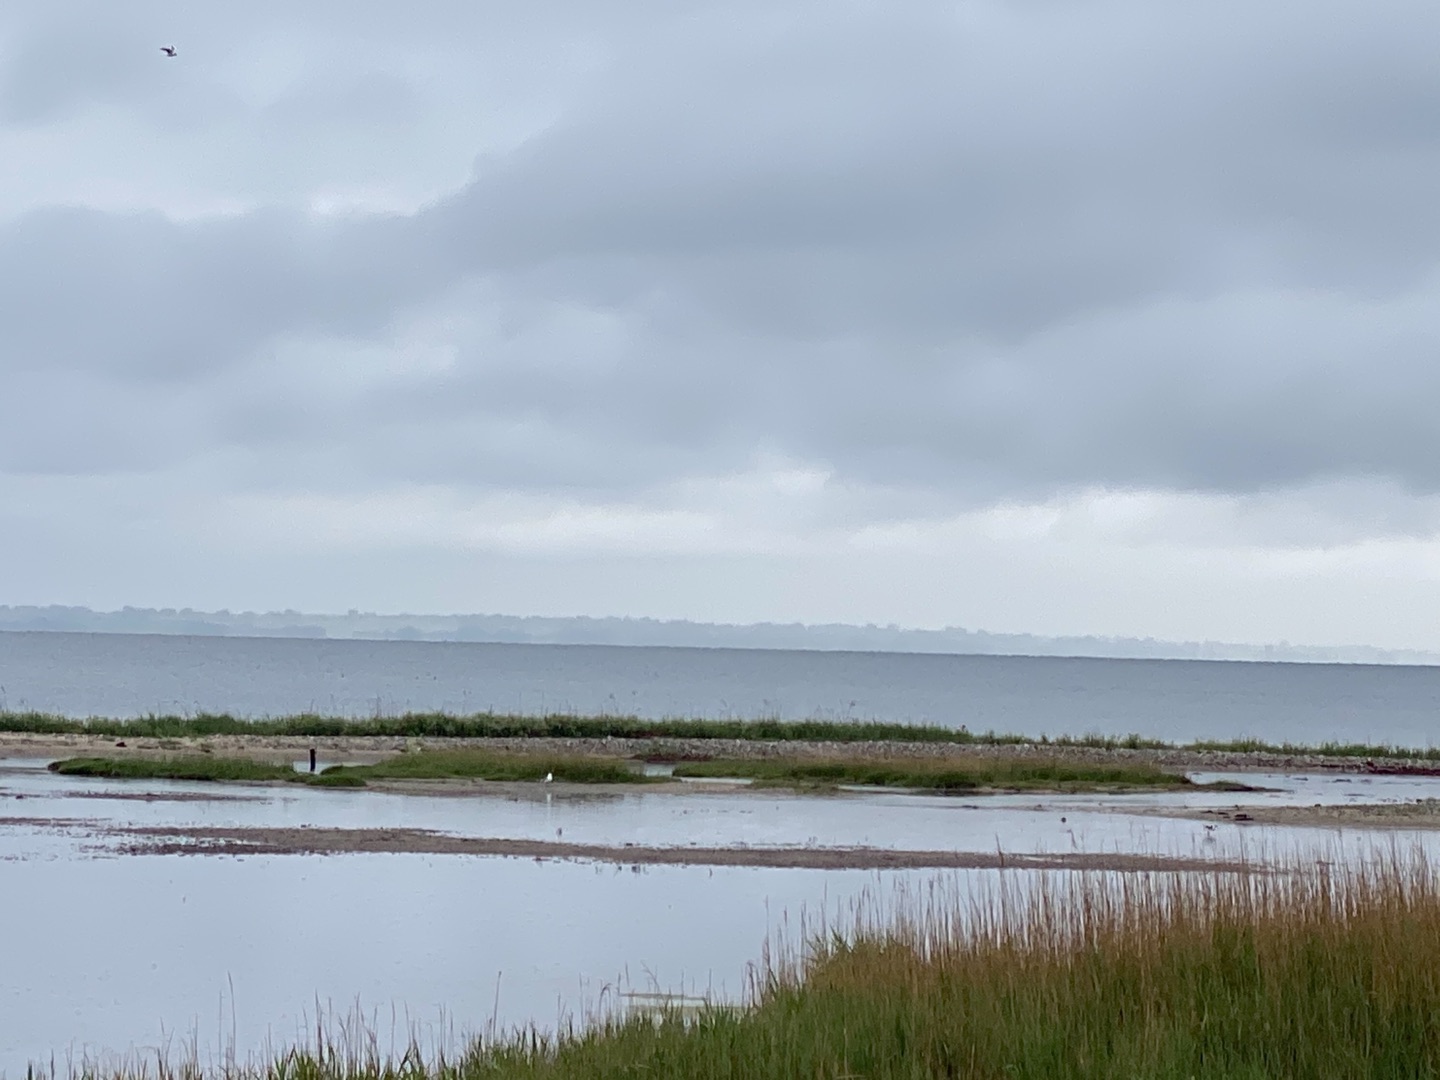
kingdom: Animalia
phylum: Chordata
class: Aves
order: Charadriiformes
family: Recurvirostridae
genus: Recurvirostra
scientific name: Recurvirostra avosetta
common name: Klyde
